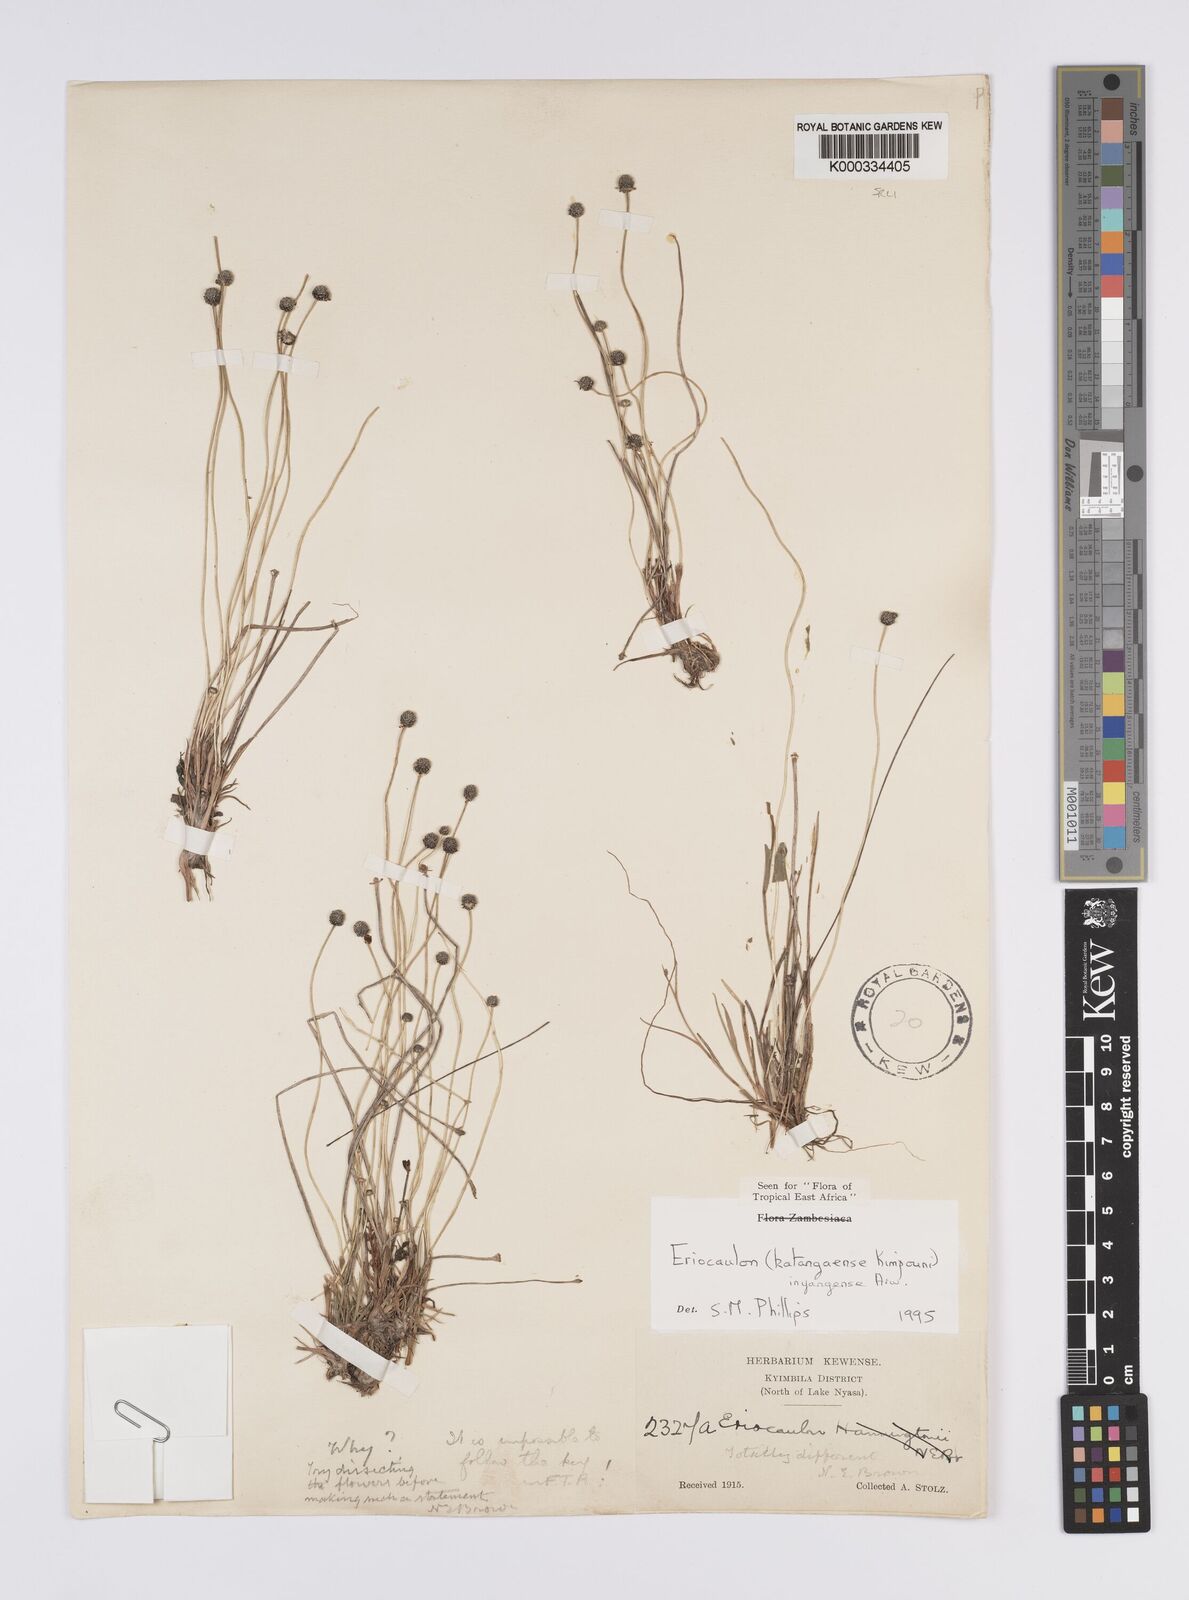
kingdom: Plantae
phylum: Tracheophyta
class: Liliopsida
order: Poales
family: Eriocaulaceae
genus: Eriocaulon
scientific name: Eriocaulon inyangense
